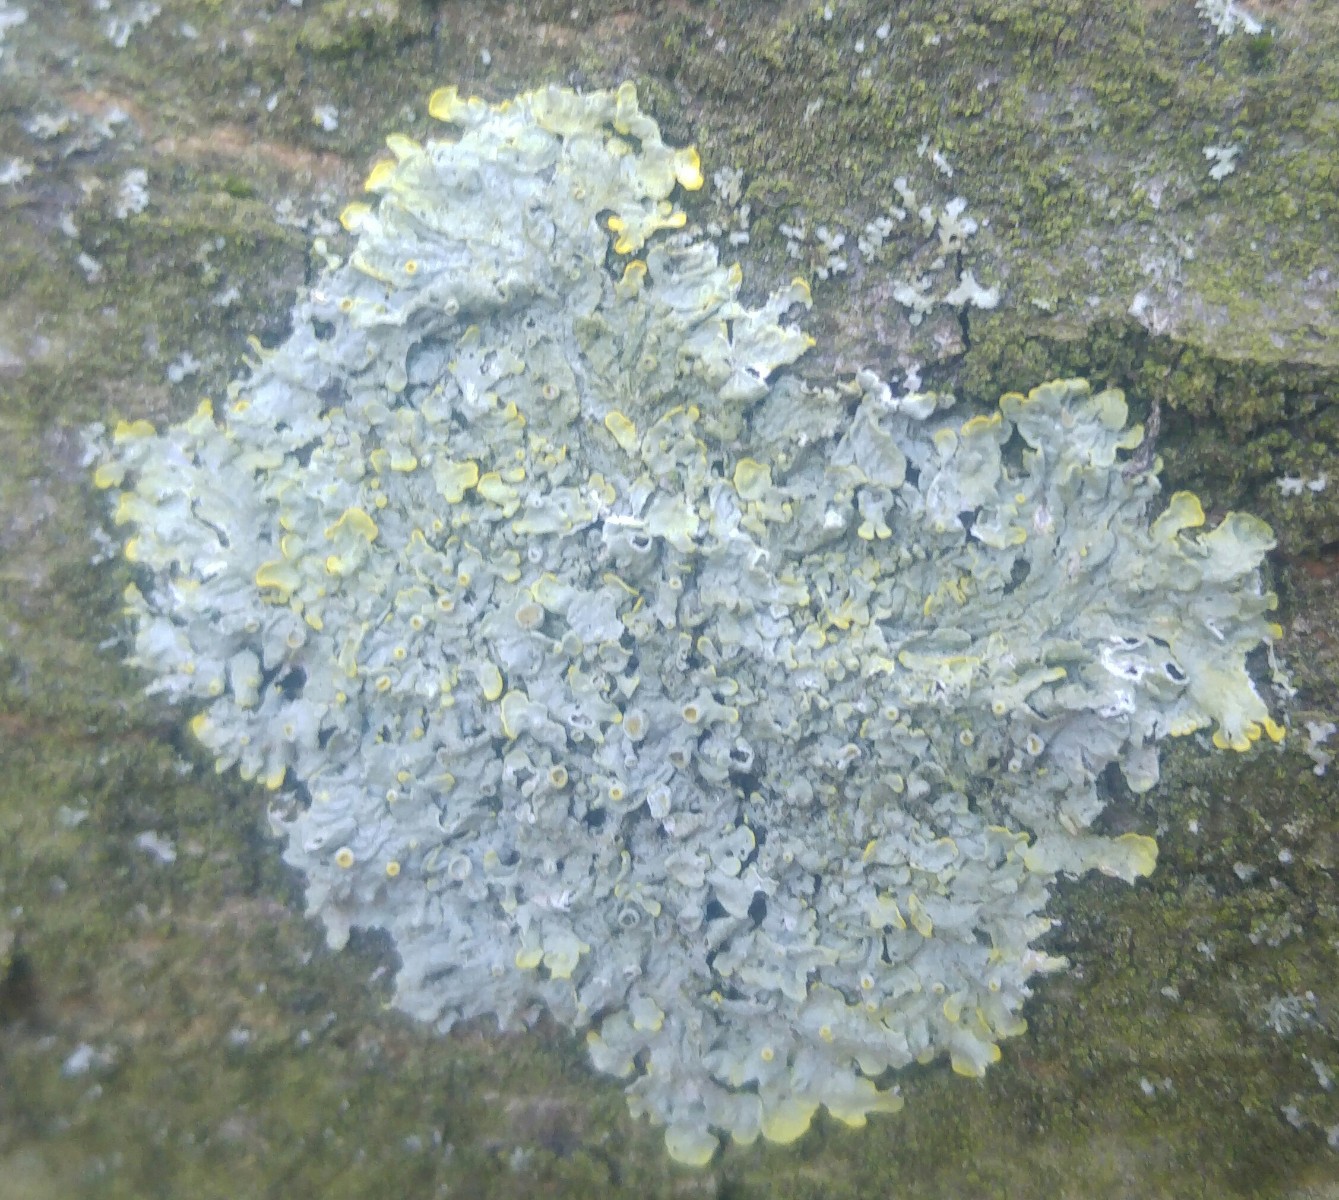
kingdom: Fungi
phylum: Ascomycota
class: Lecanoromycetes
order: Teloschistales
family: Teloschistaceae
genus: Xanthoria
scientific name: Xanthoria parietina
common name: almindelig væggelav
